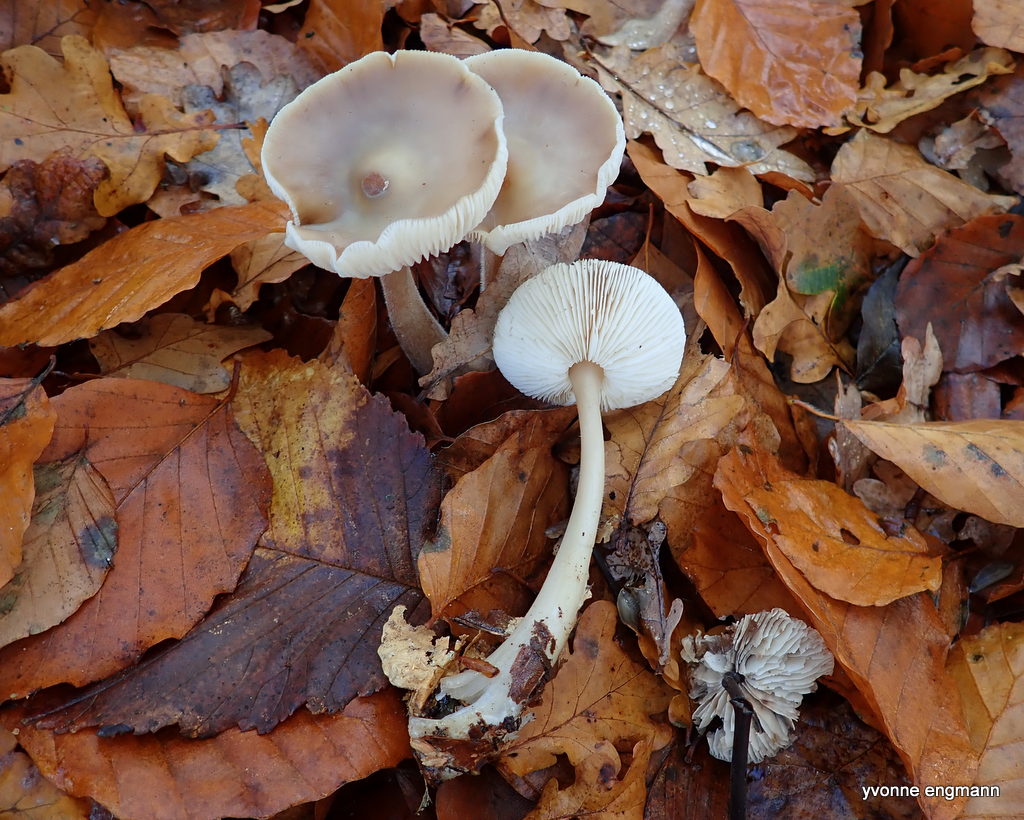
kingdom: Fungi
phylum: Basidiomycota
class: Agaricomycetes
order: Agaricales
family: Omphalotaceae
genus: Rhodocollybia
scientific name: Rhodocollybia asema
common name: horngrå fladhat
